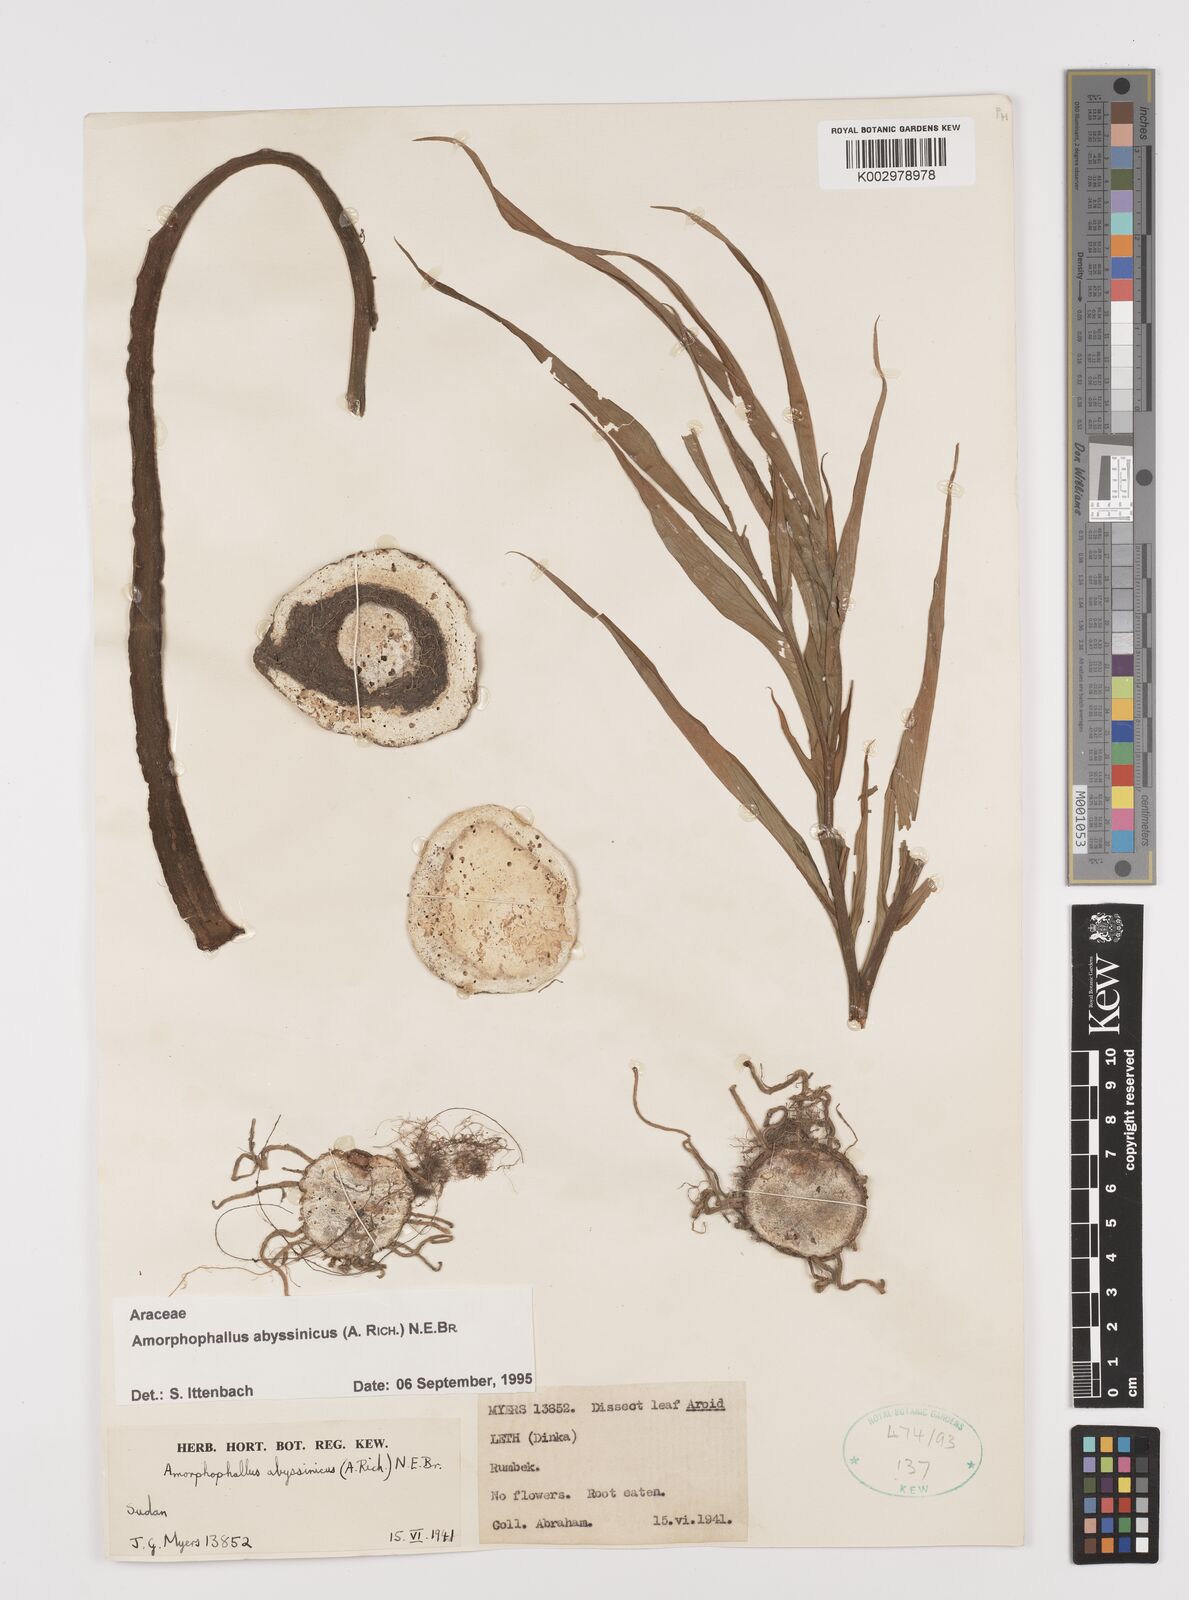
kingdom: Plantae
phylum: Tracheophyta
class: Liliopsida
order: Alismatales
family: Araceae
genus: Amorphophallus
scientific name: Amorphophallus abyssinicus
